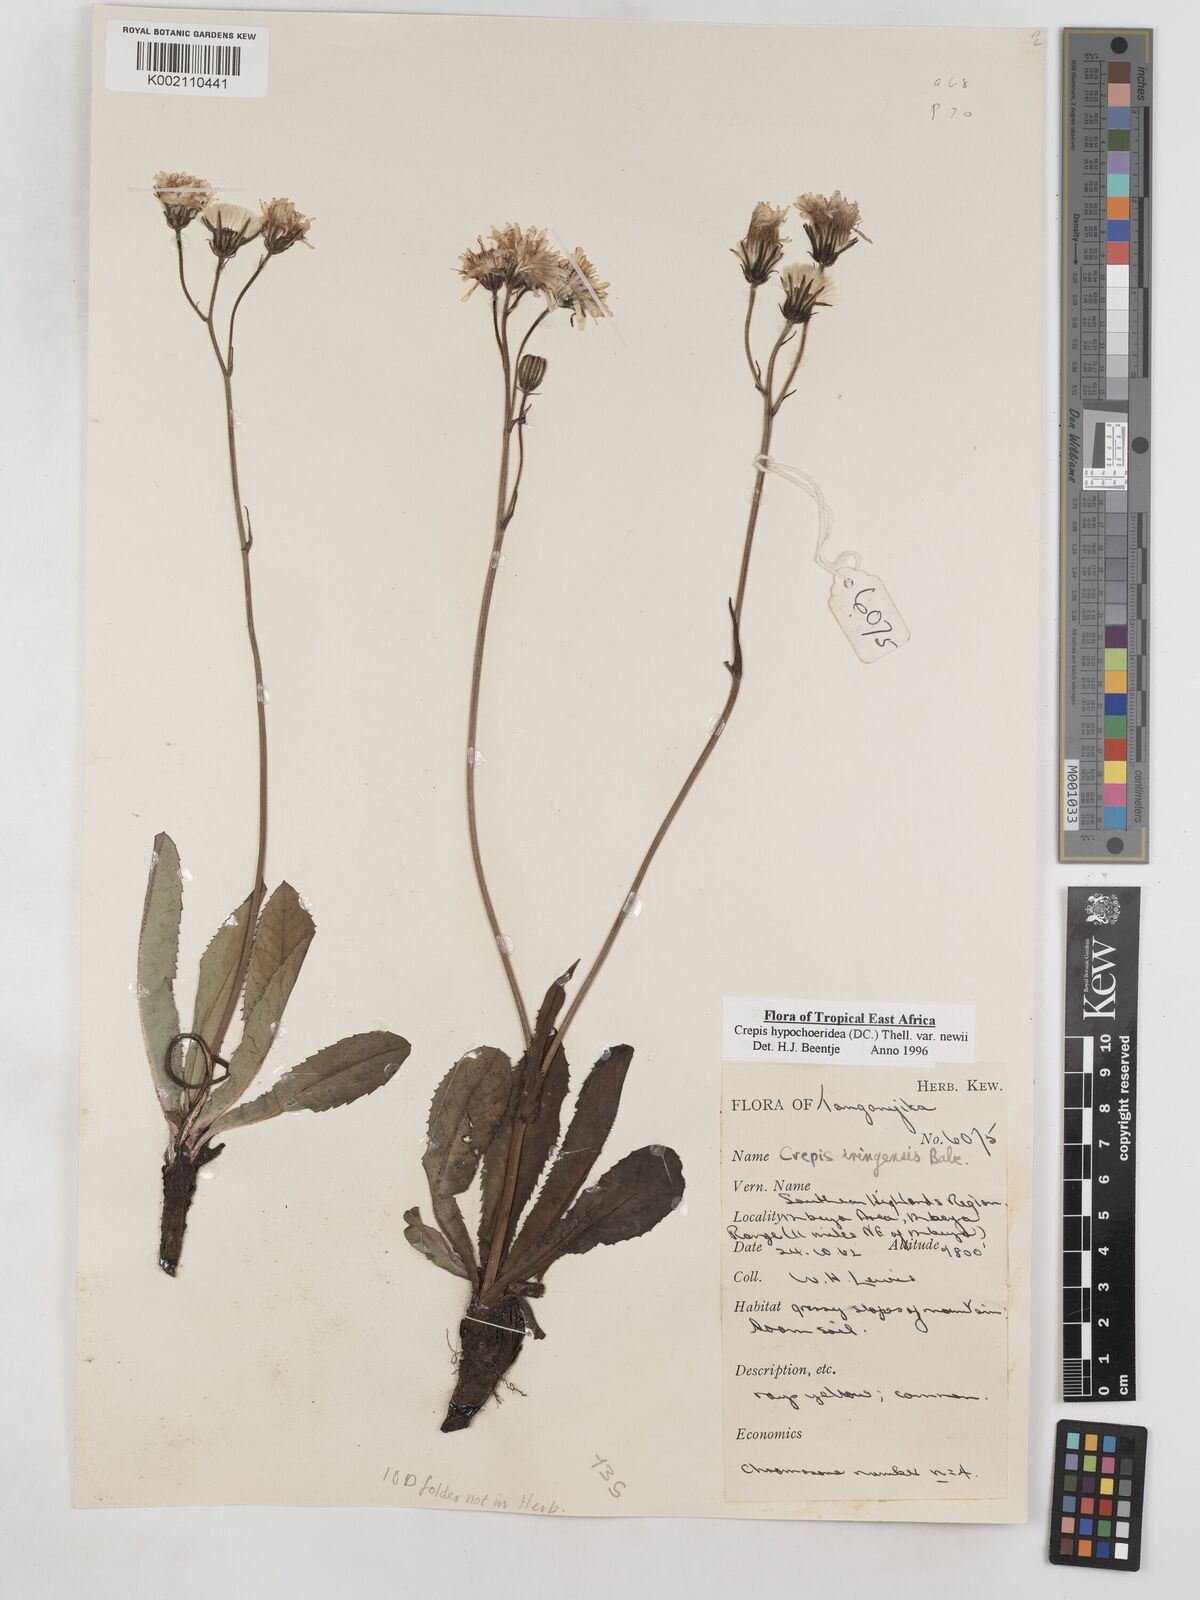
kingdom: Plantae
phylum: Tracheophyta
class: Magnoliopsida
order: Asterales
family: Asteraceae
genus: Crepis
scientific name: Crepis hypochoeridea
